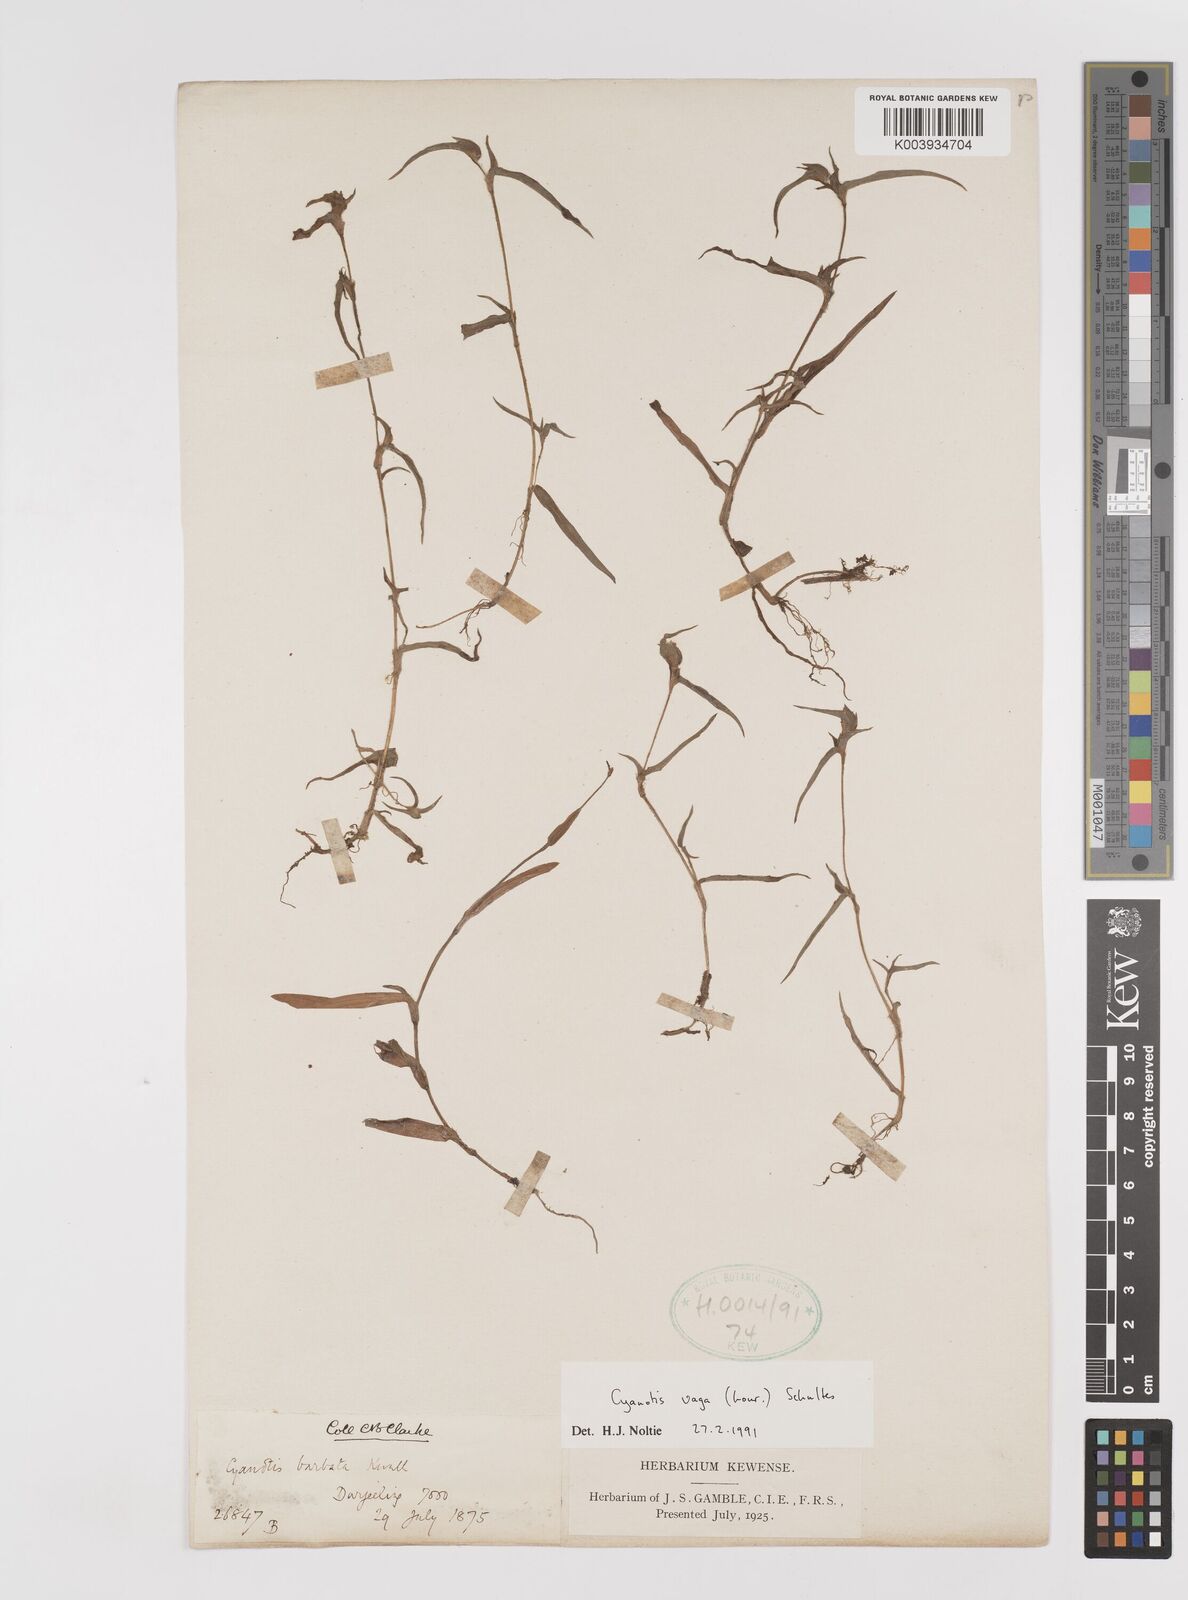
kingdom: Plantae
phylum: Tracheophyta
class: Liliopsida
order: Commelinales
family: Commelinaceae
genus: Cyanotis
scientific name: Cyanotis vaga
